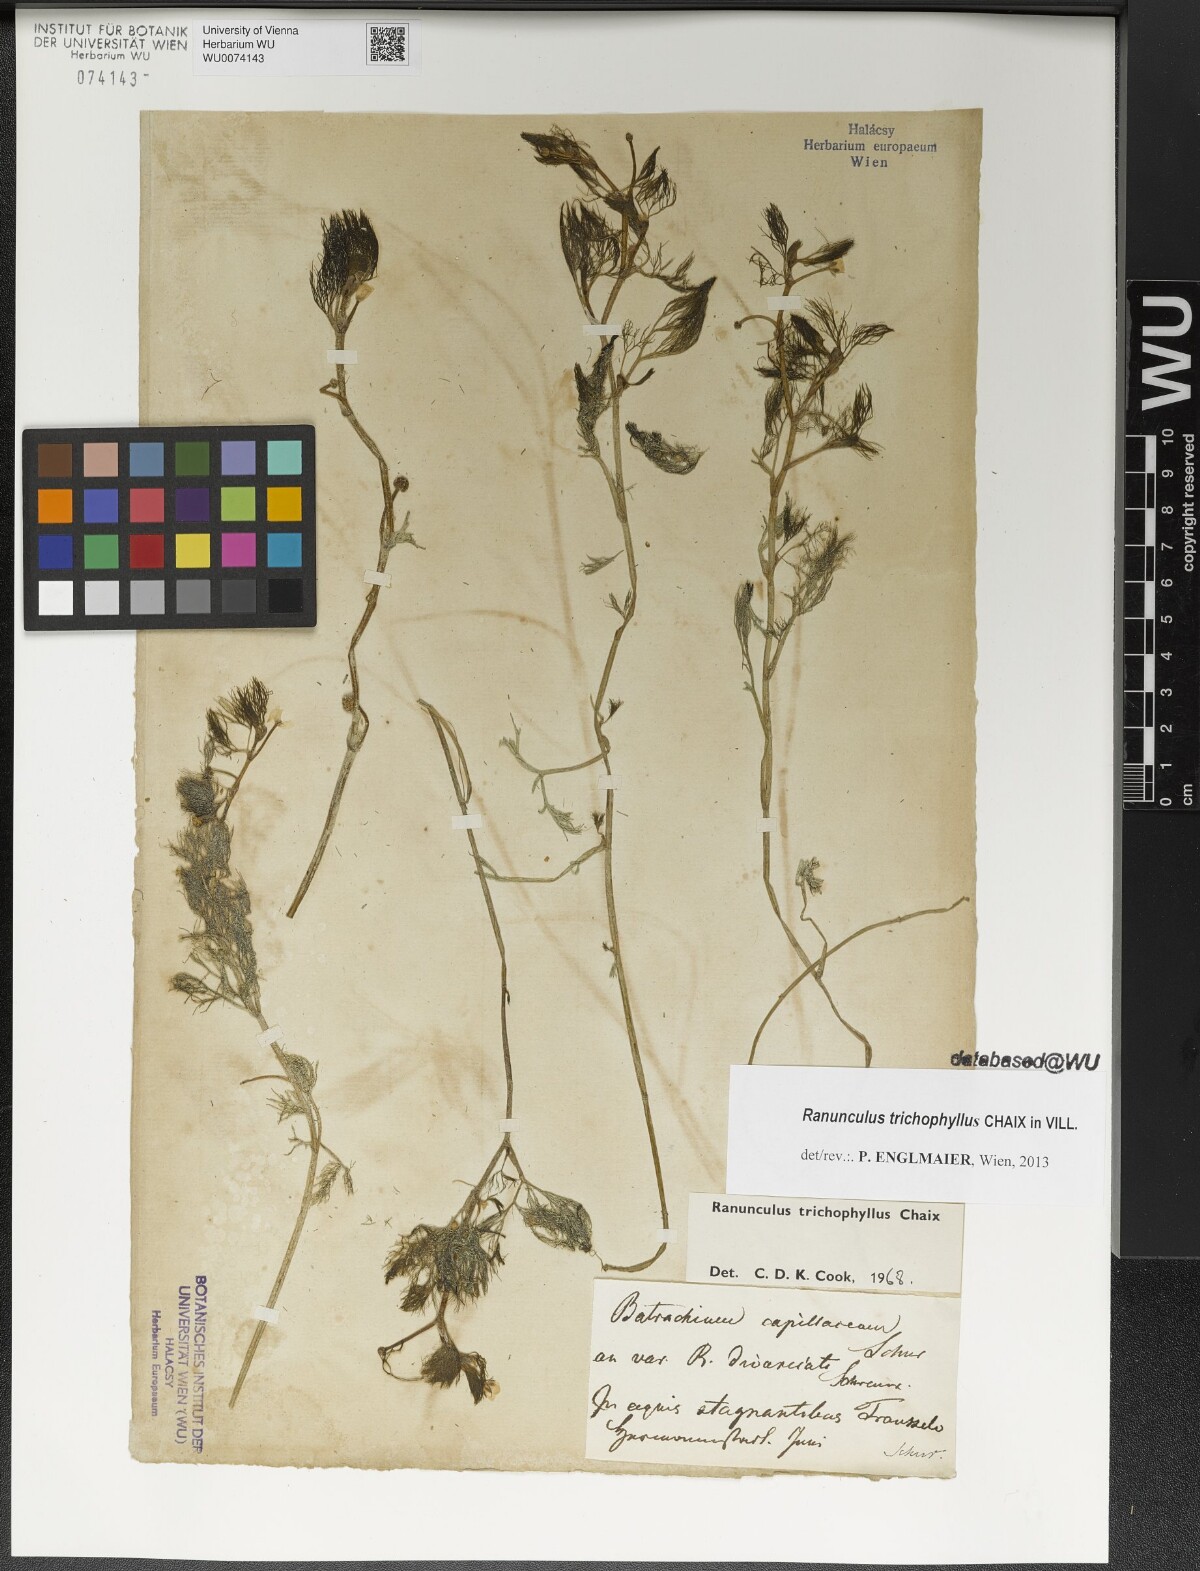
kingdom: Plantae
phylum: Tracheophyta
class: Magnoliopsida
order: Ranunculales
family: Ranunculaceae
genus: Ranunculus
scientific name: Ranunculus trichophyllus
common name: Thread-leaved water-crowfoot
